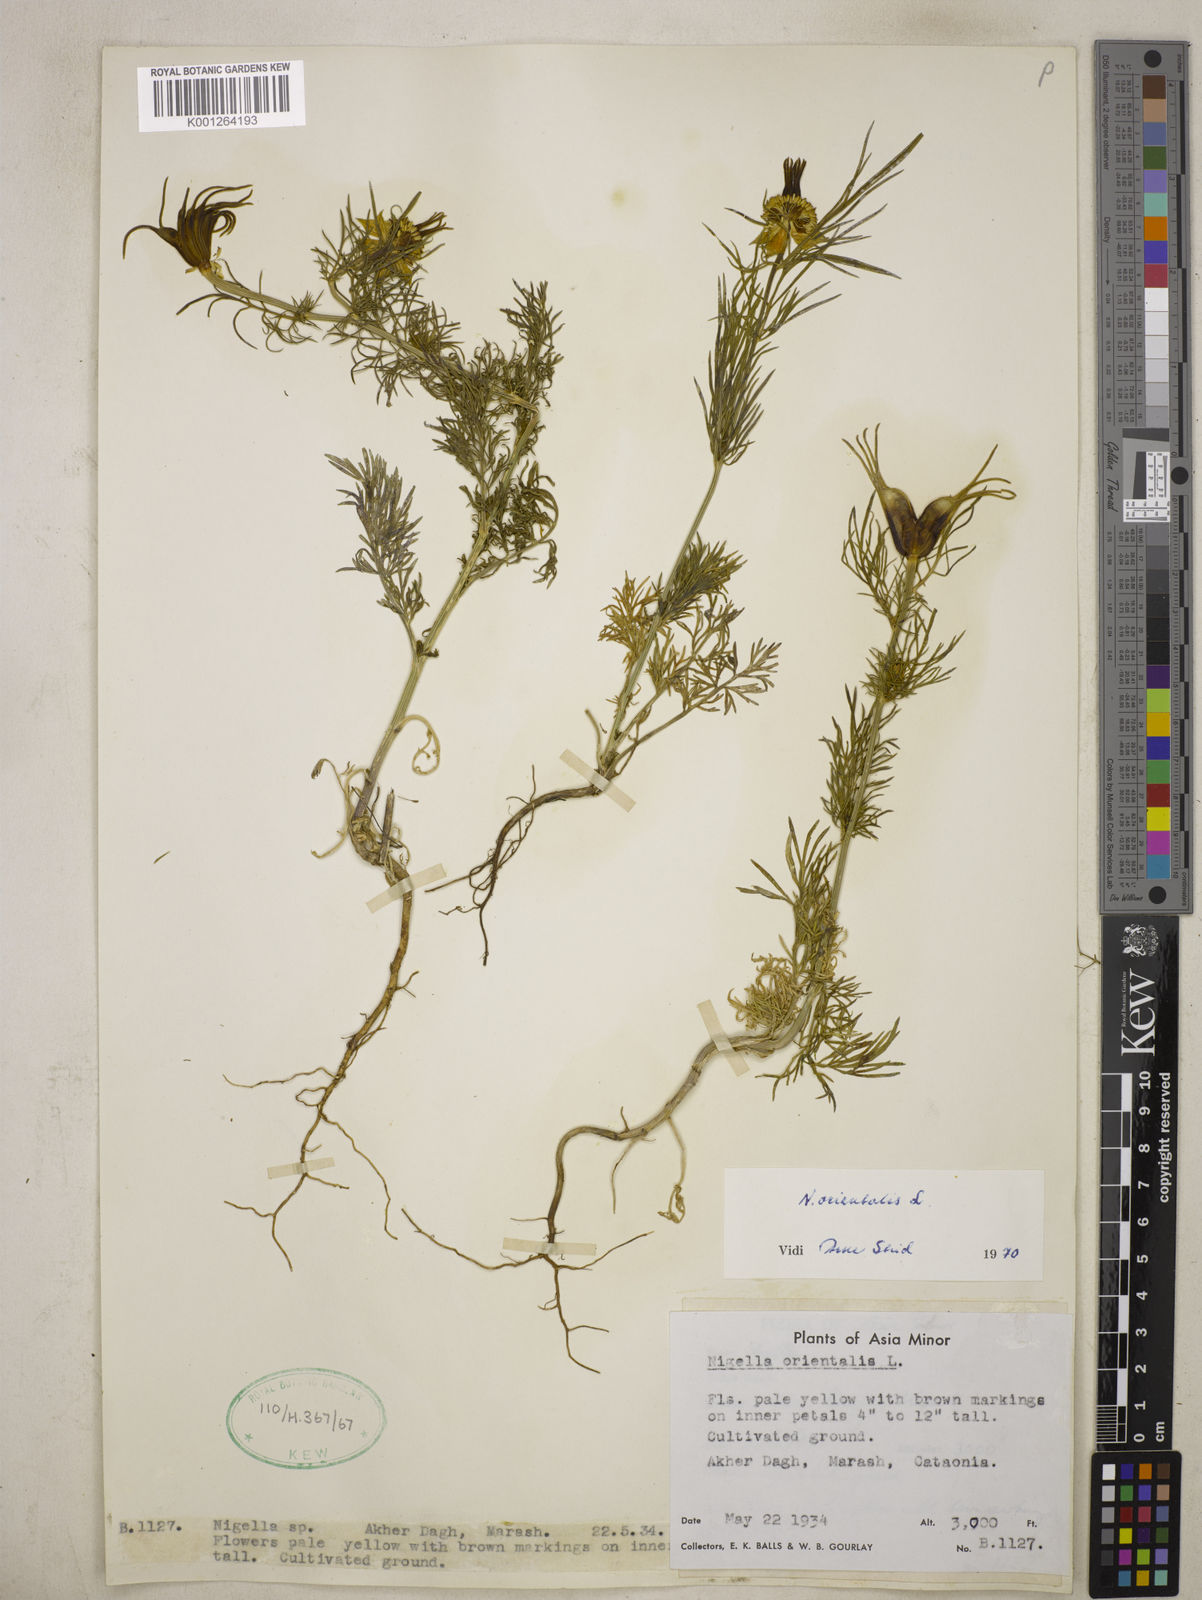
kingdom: Plantae
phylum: Tracheophyta
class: Magnoliopsida
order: Ranunculales
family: Ranunculaceae
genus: Nigella
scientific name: Nigella orientalis
